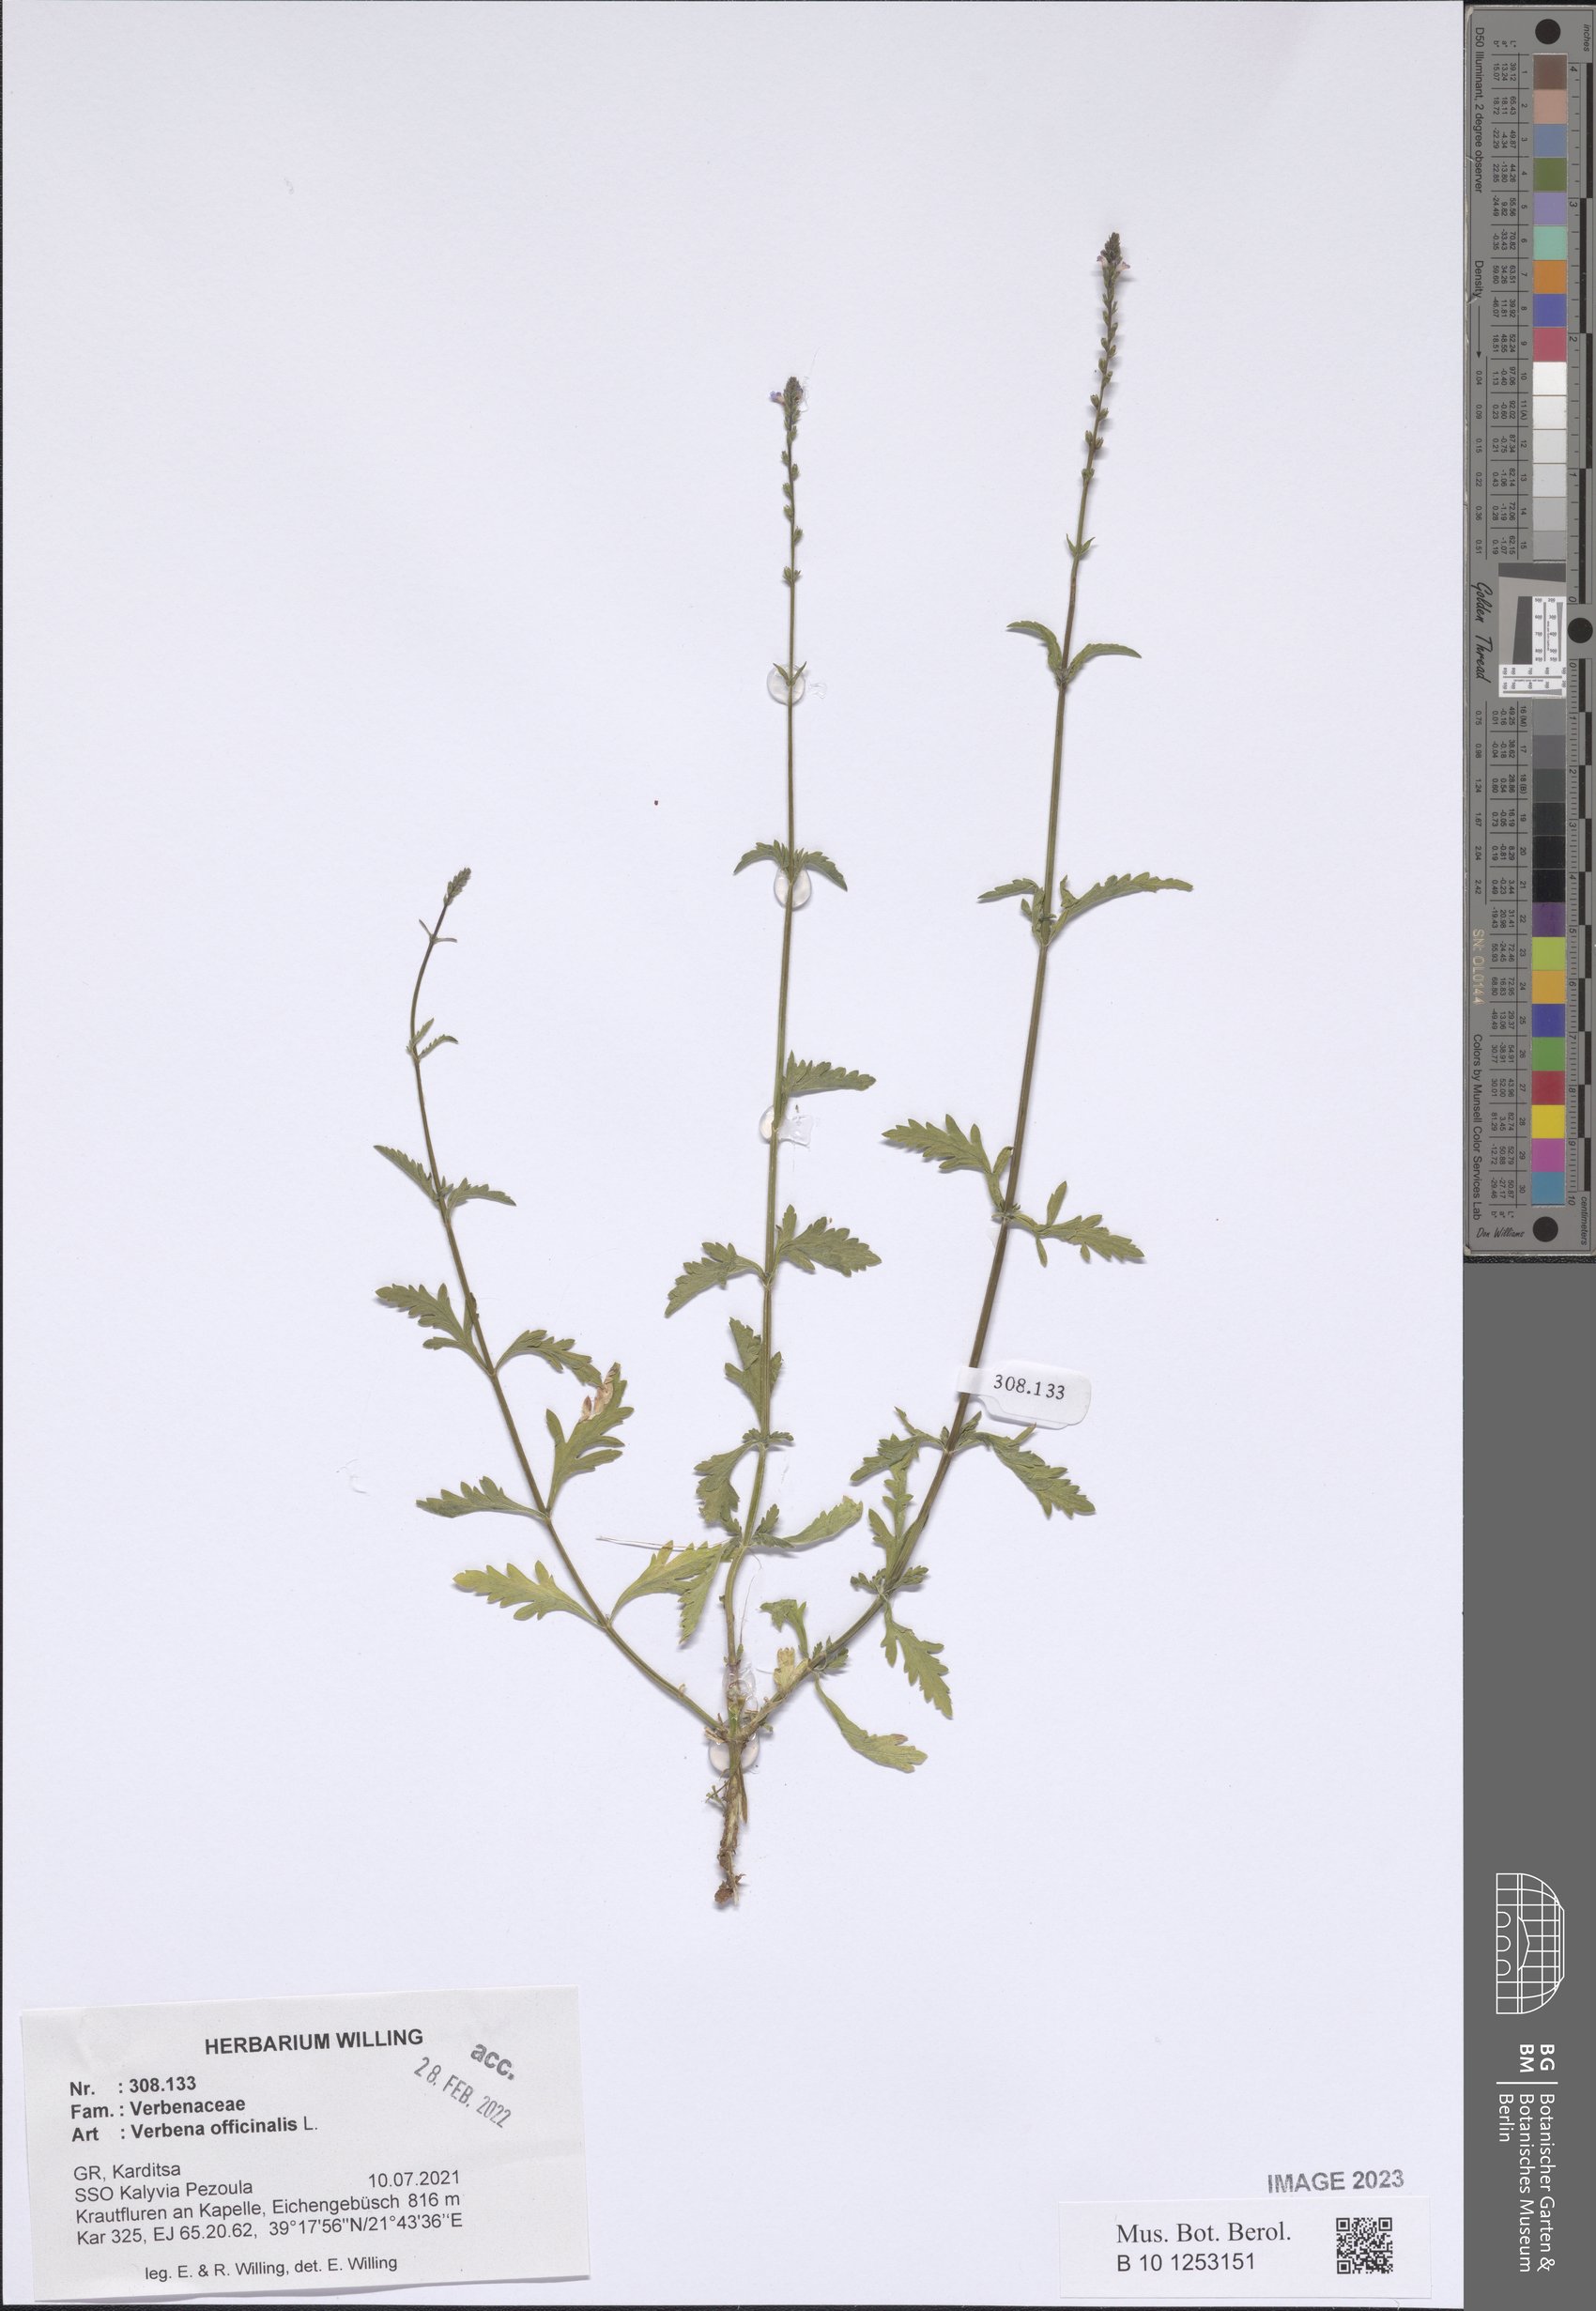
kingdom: Plantae
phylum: Tracheophyta
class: Magnoliopsida
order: Lamiales
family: Verbenaceae
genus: Verbena
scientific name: Verbena officinalis
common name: Vervain
